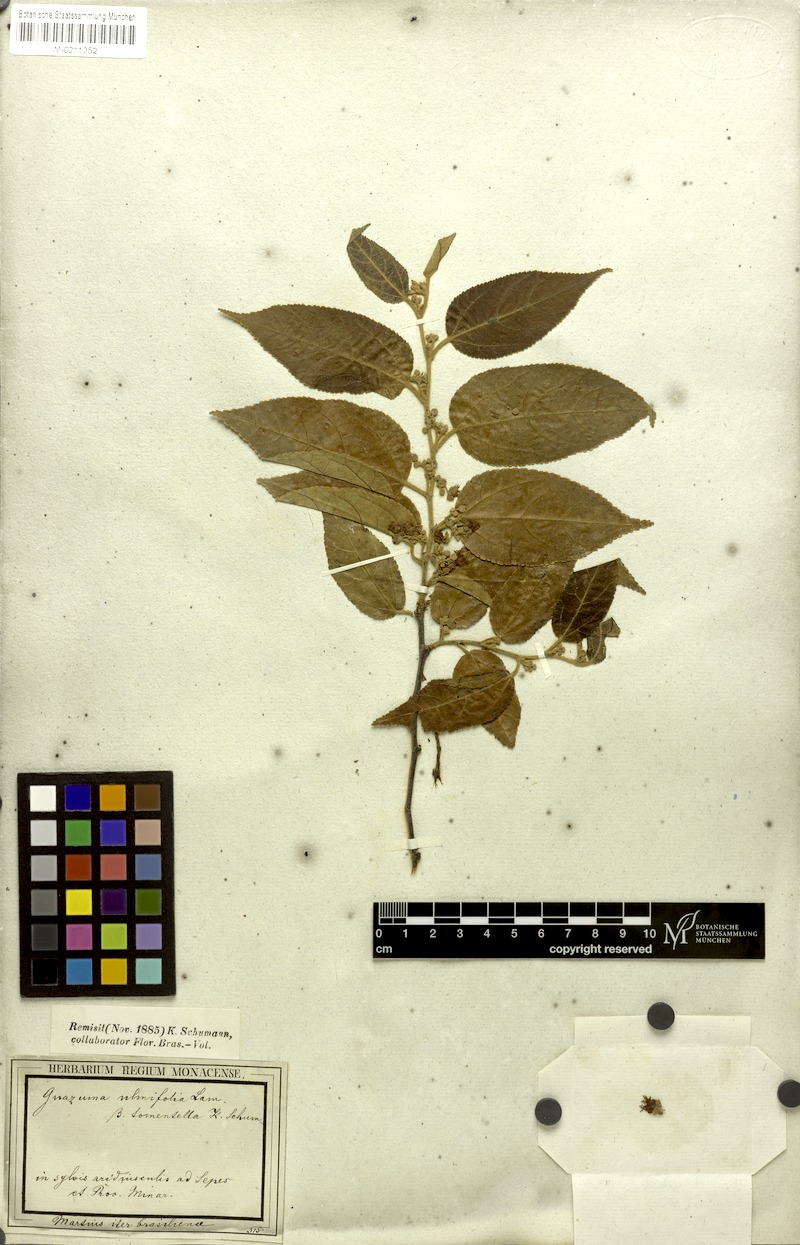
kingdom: Plantae
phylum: Tracheophyta
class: Magnoliopsida
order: Malvales
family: Malvaceae
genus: Guazuma
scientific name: Guazuma ulmifolia
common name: Bastard-cedar
